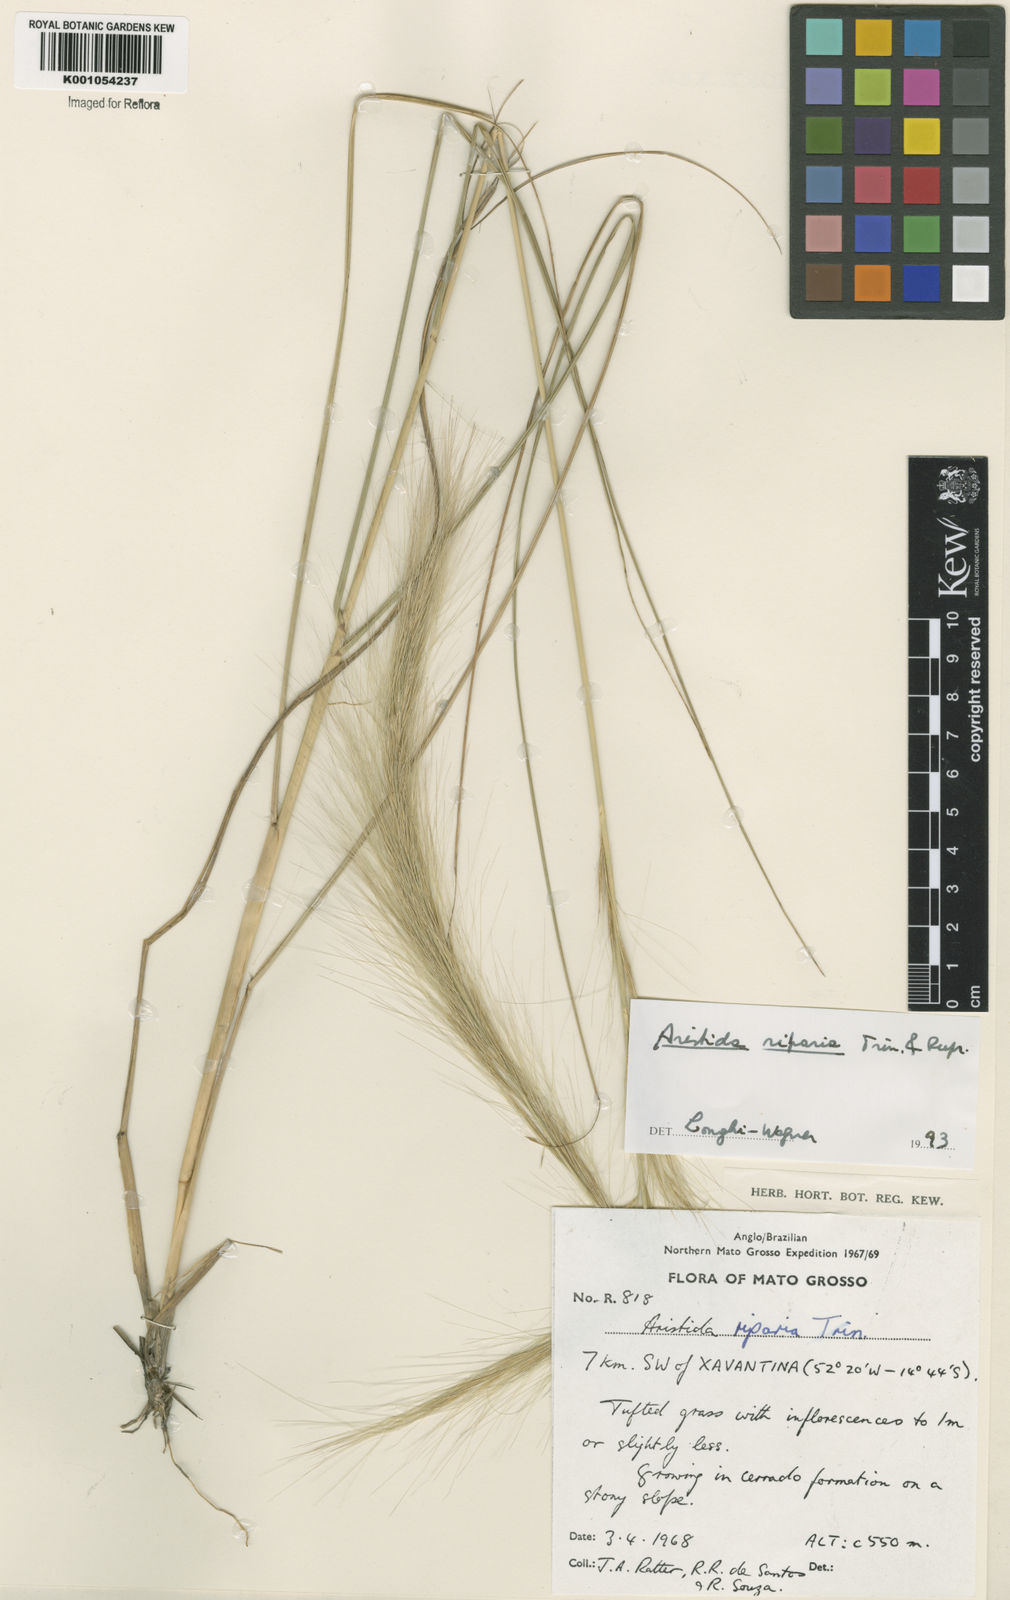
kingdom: Plantae
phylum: Tracheophyta
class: Liliopsida
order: Poales
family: Poaceae
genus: Aristida
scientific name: Aristida riparia
